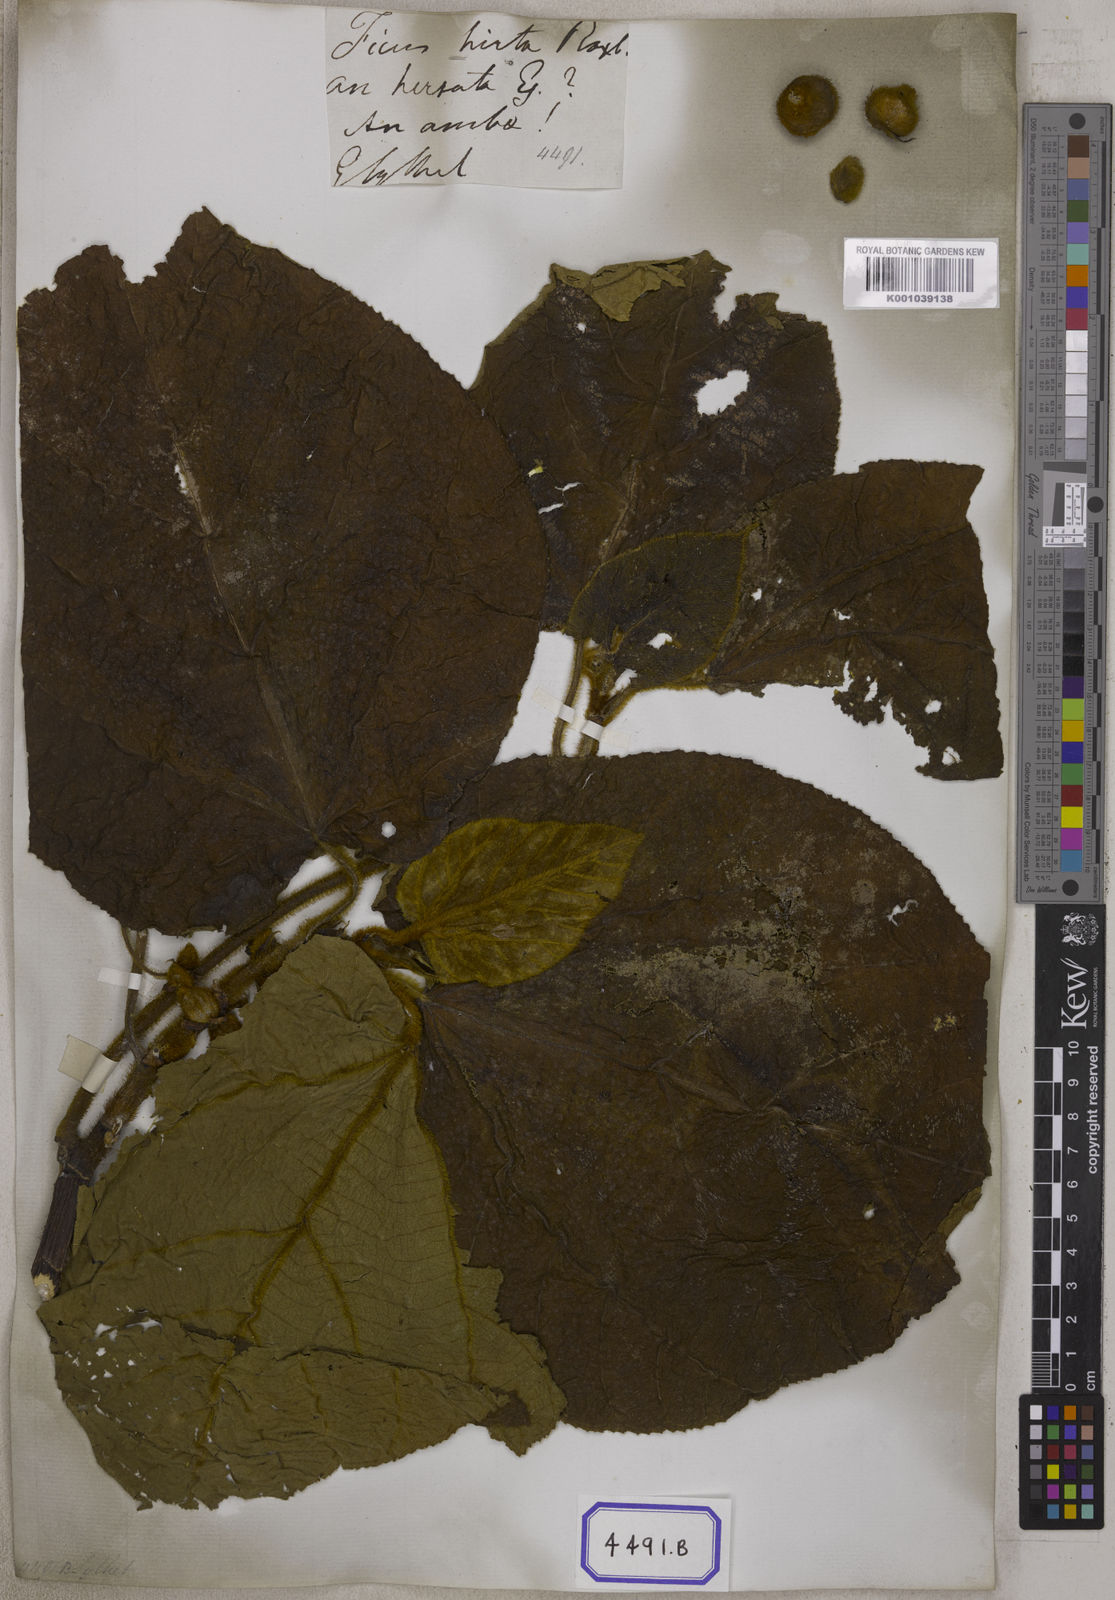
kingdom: Plantae
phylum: Tracheophyta
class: Magnoliopsida
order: Rosales
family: Moraceae
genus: Ficus
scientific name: Ficus
